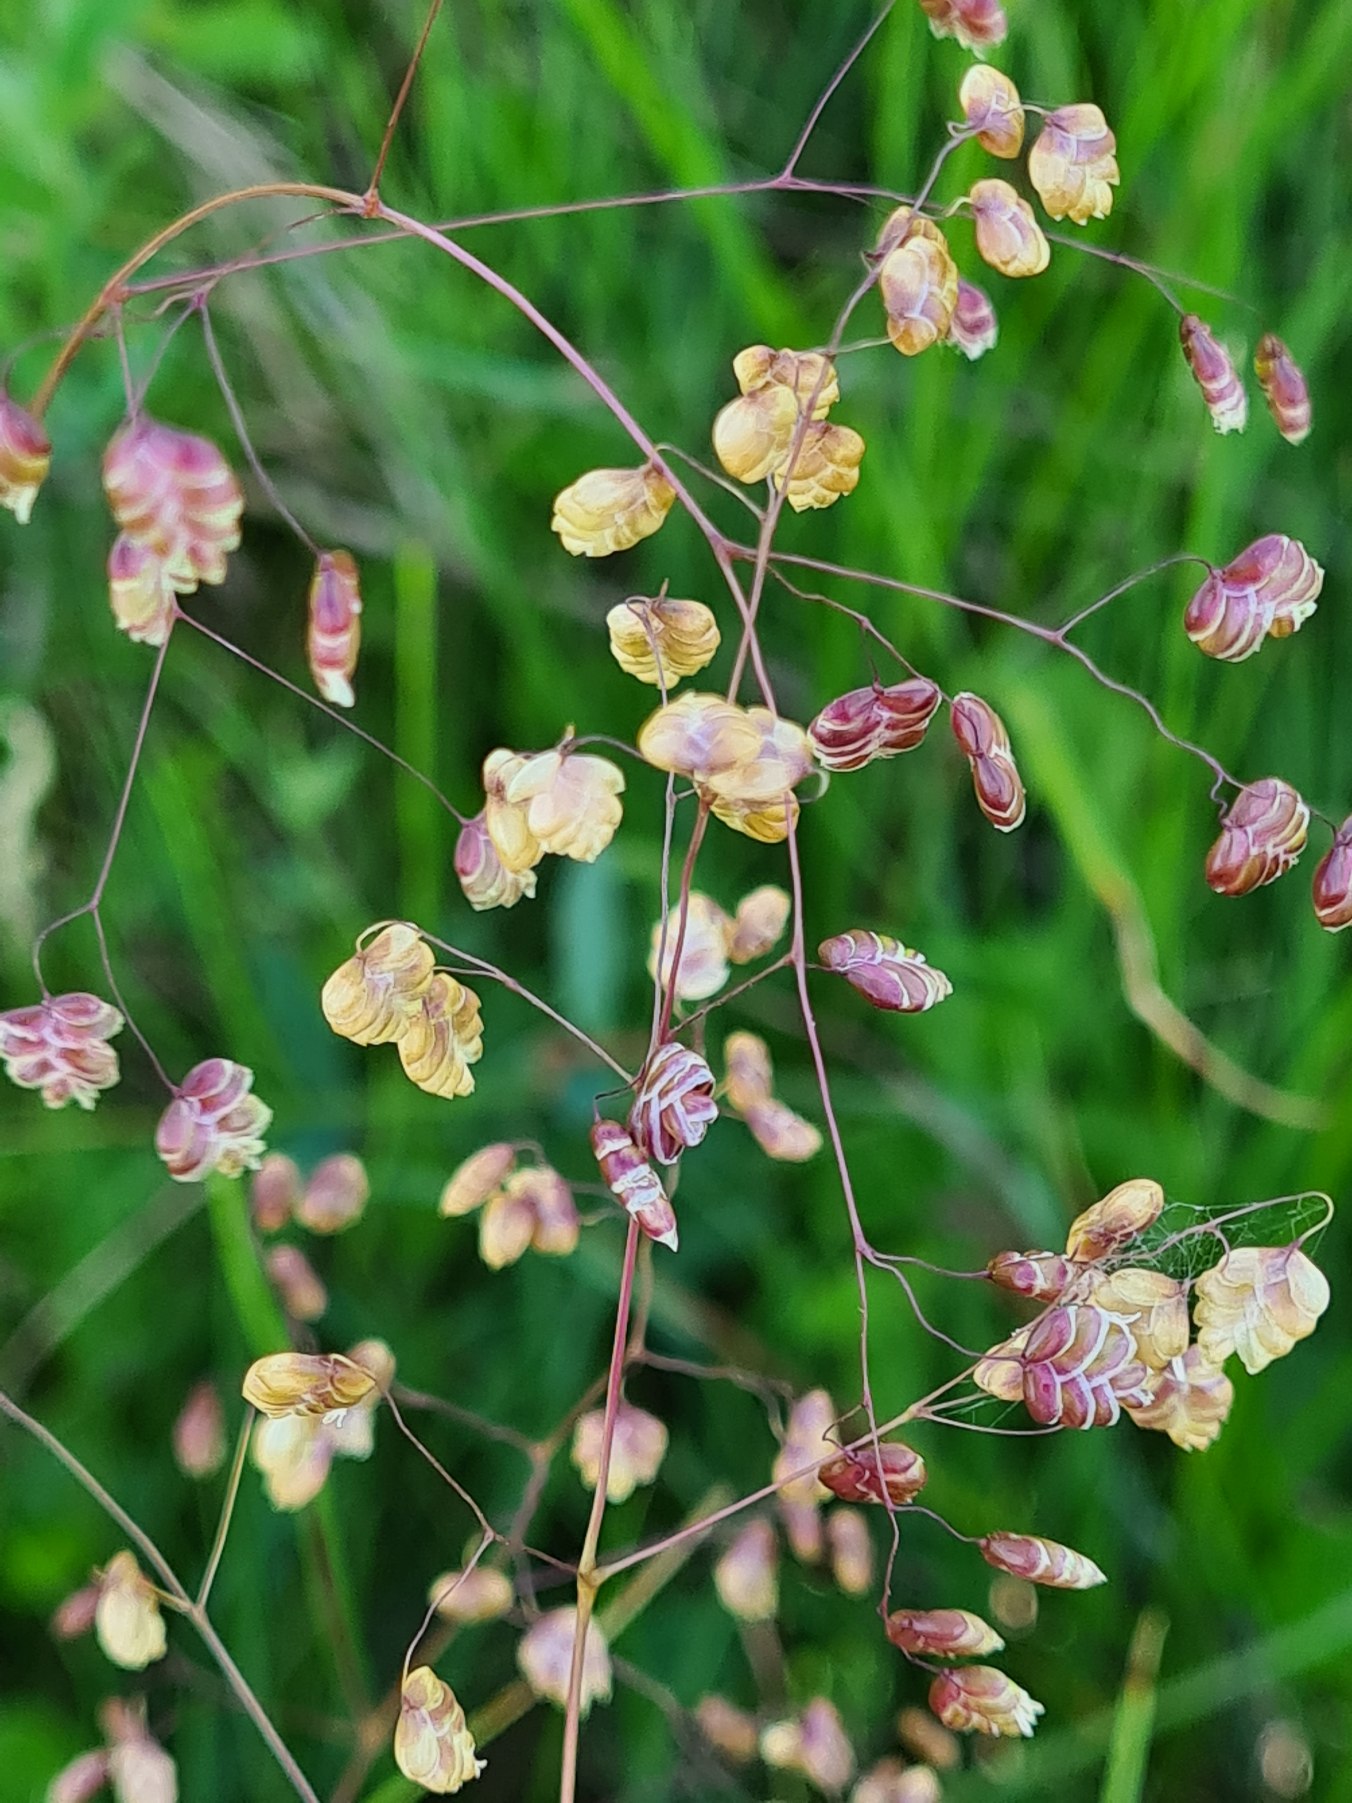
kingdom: Plantae
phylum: Tracheophyta
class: Liliopsida
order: Poales
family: Poaceae
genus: Briza
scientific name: Briza media
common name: Hjertegræs
